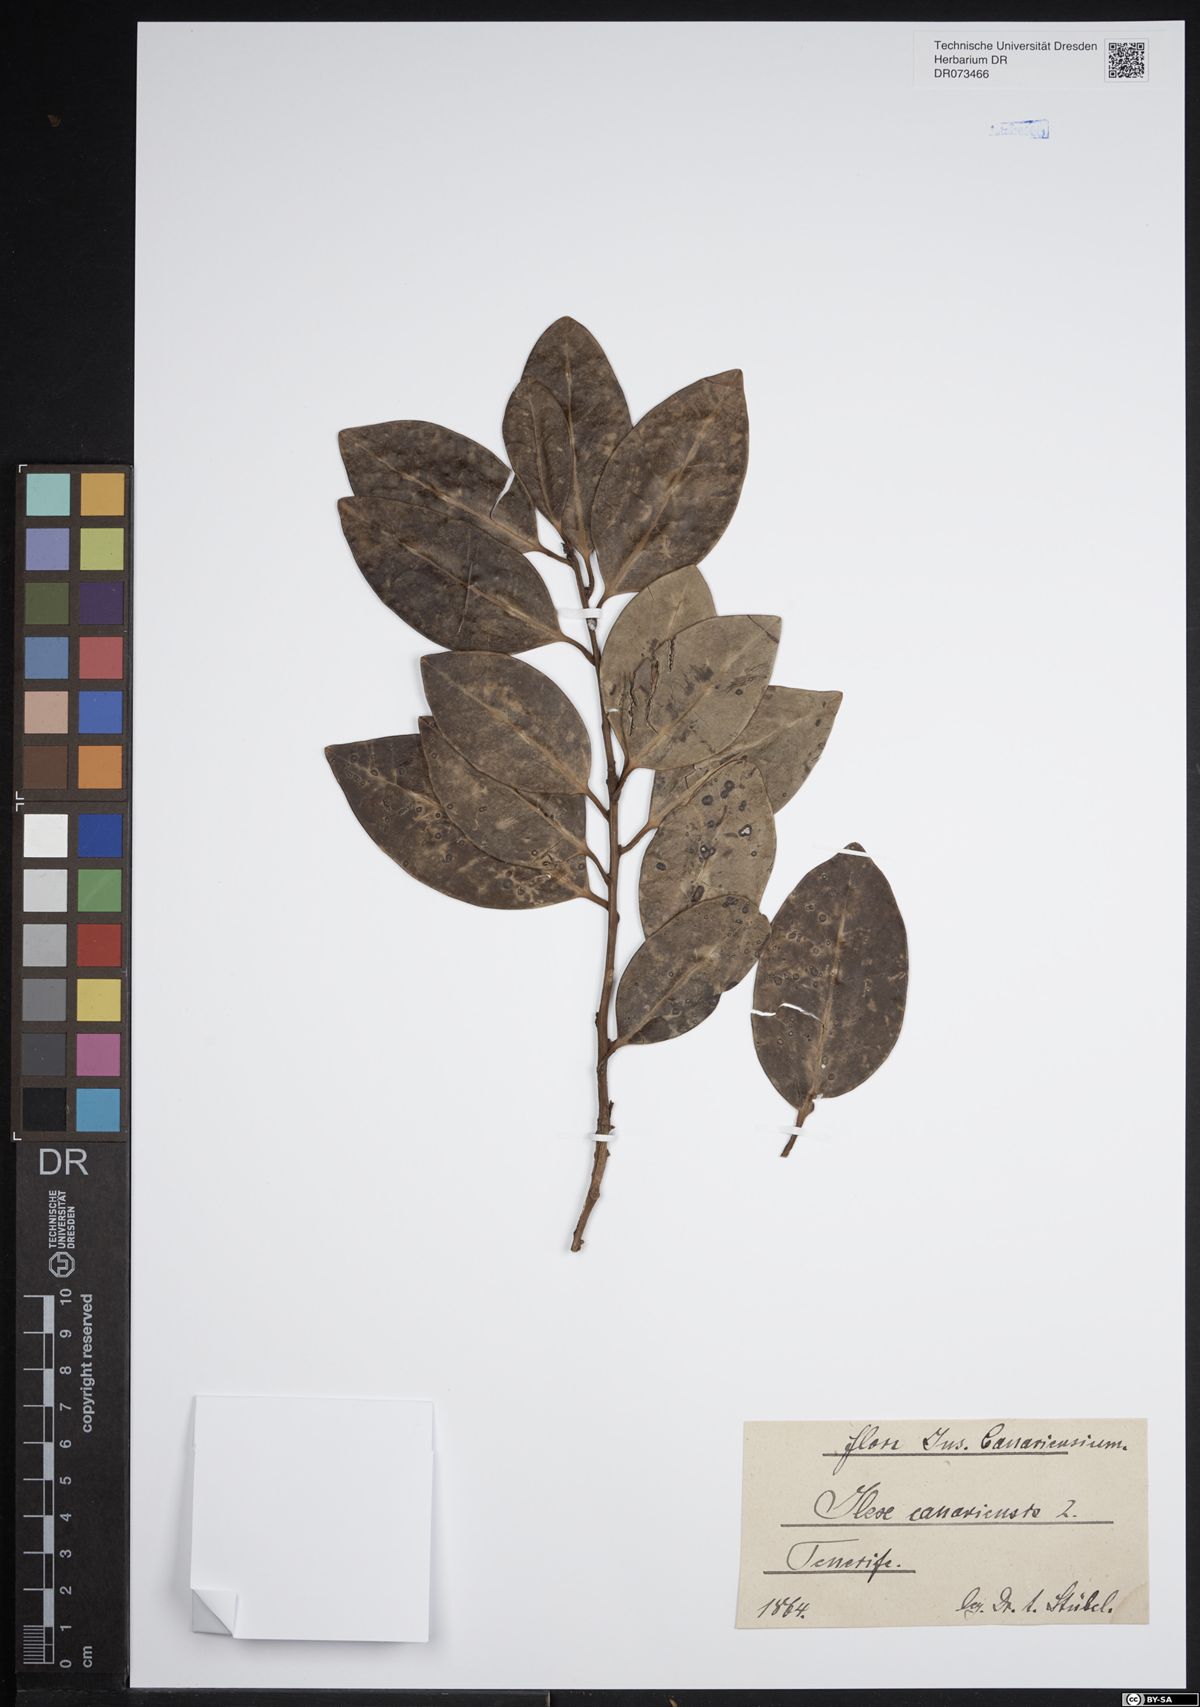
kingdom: Plantae
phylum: Tracheophyta
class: Magnoliopsida
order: Aquifoliales
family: Aquifoliaceae
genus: Ilex
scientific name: Ilex canariensis
